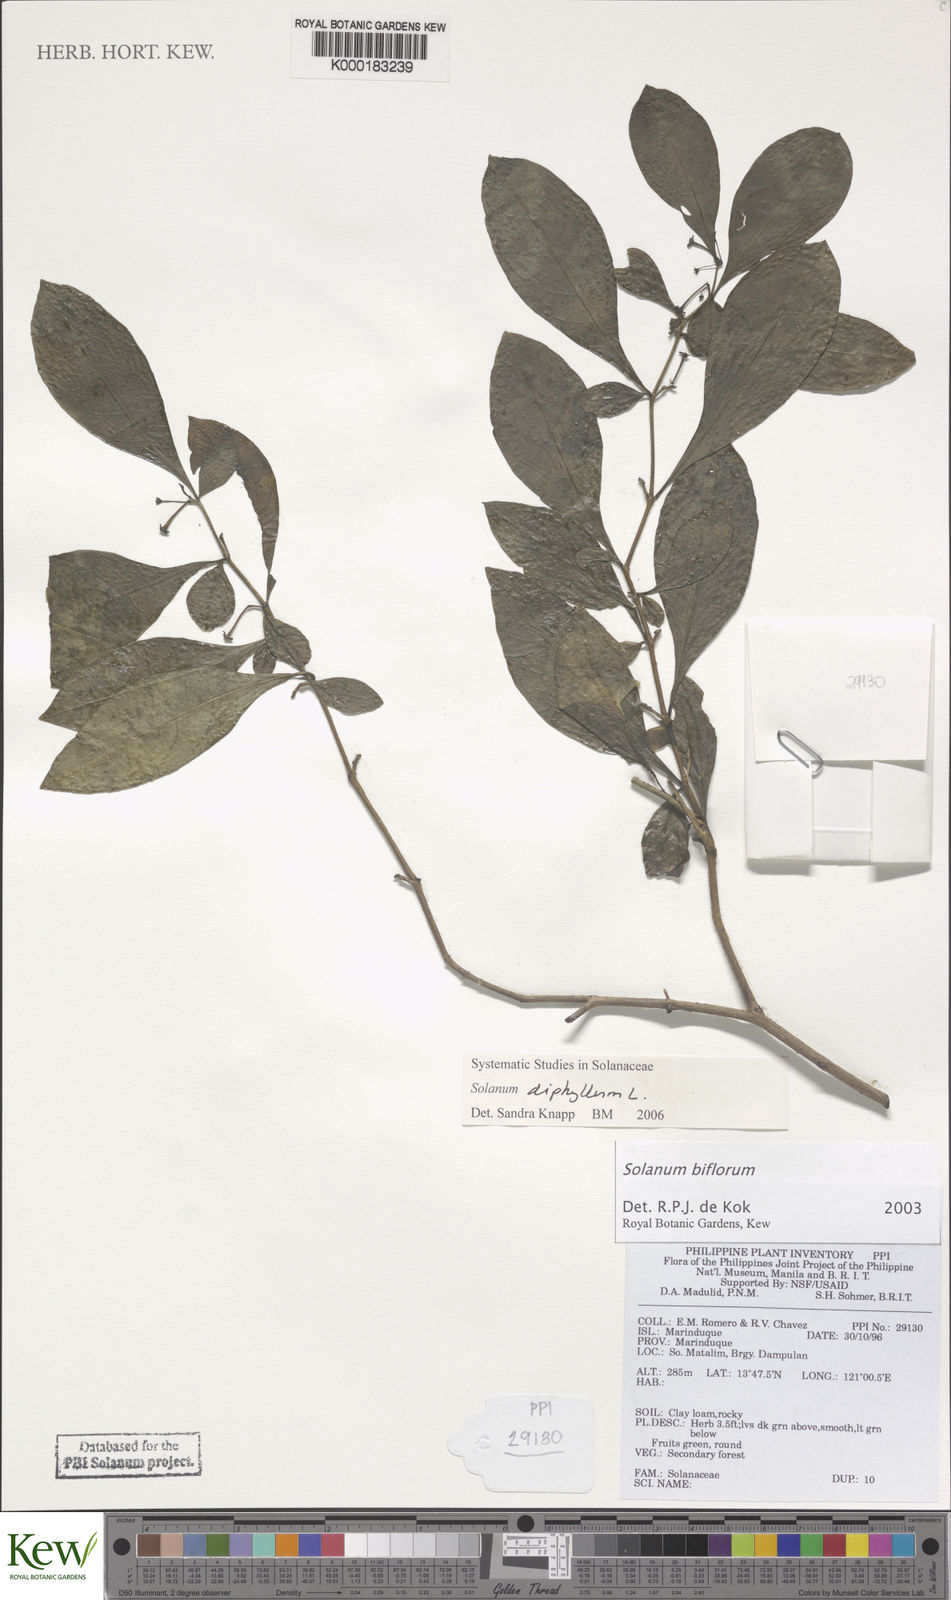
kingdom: Plantae
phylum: Tracheophyta
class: Magnoliopsida
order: Solanales
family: Solanaceae
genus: Lycianthes
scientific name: Lycianthes biflora
